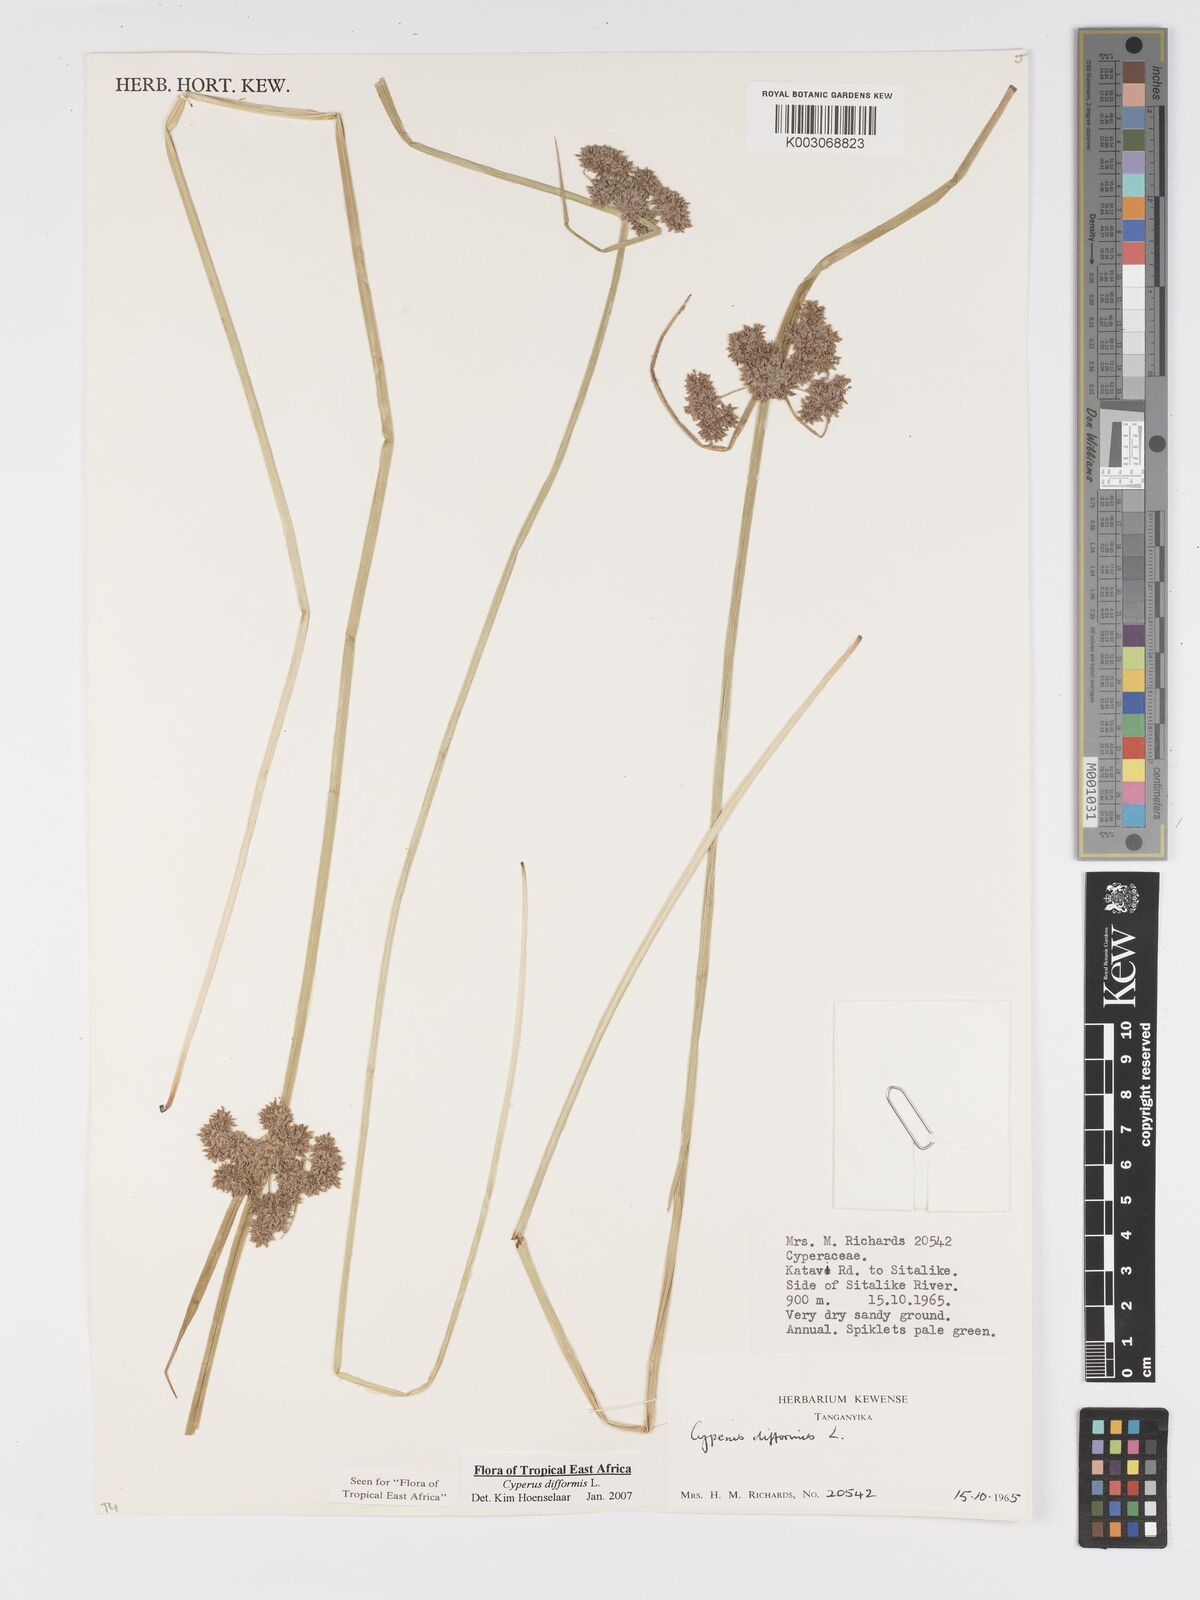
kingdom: Plantae
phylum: Tracheophyta
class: Liliopsida
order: Poales
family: Cyperaceae
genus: Cyperus
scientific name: Cyperus difformis
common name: Variable flatsedge
